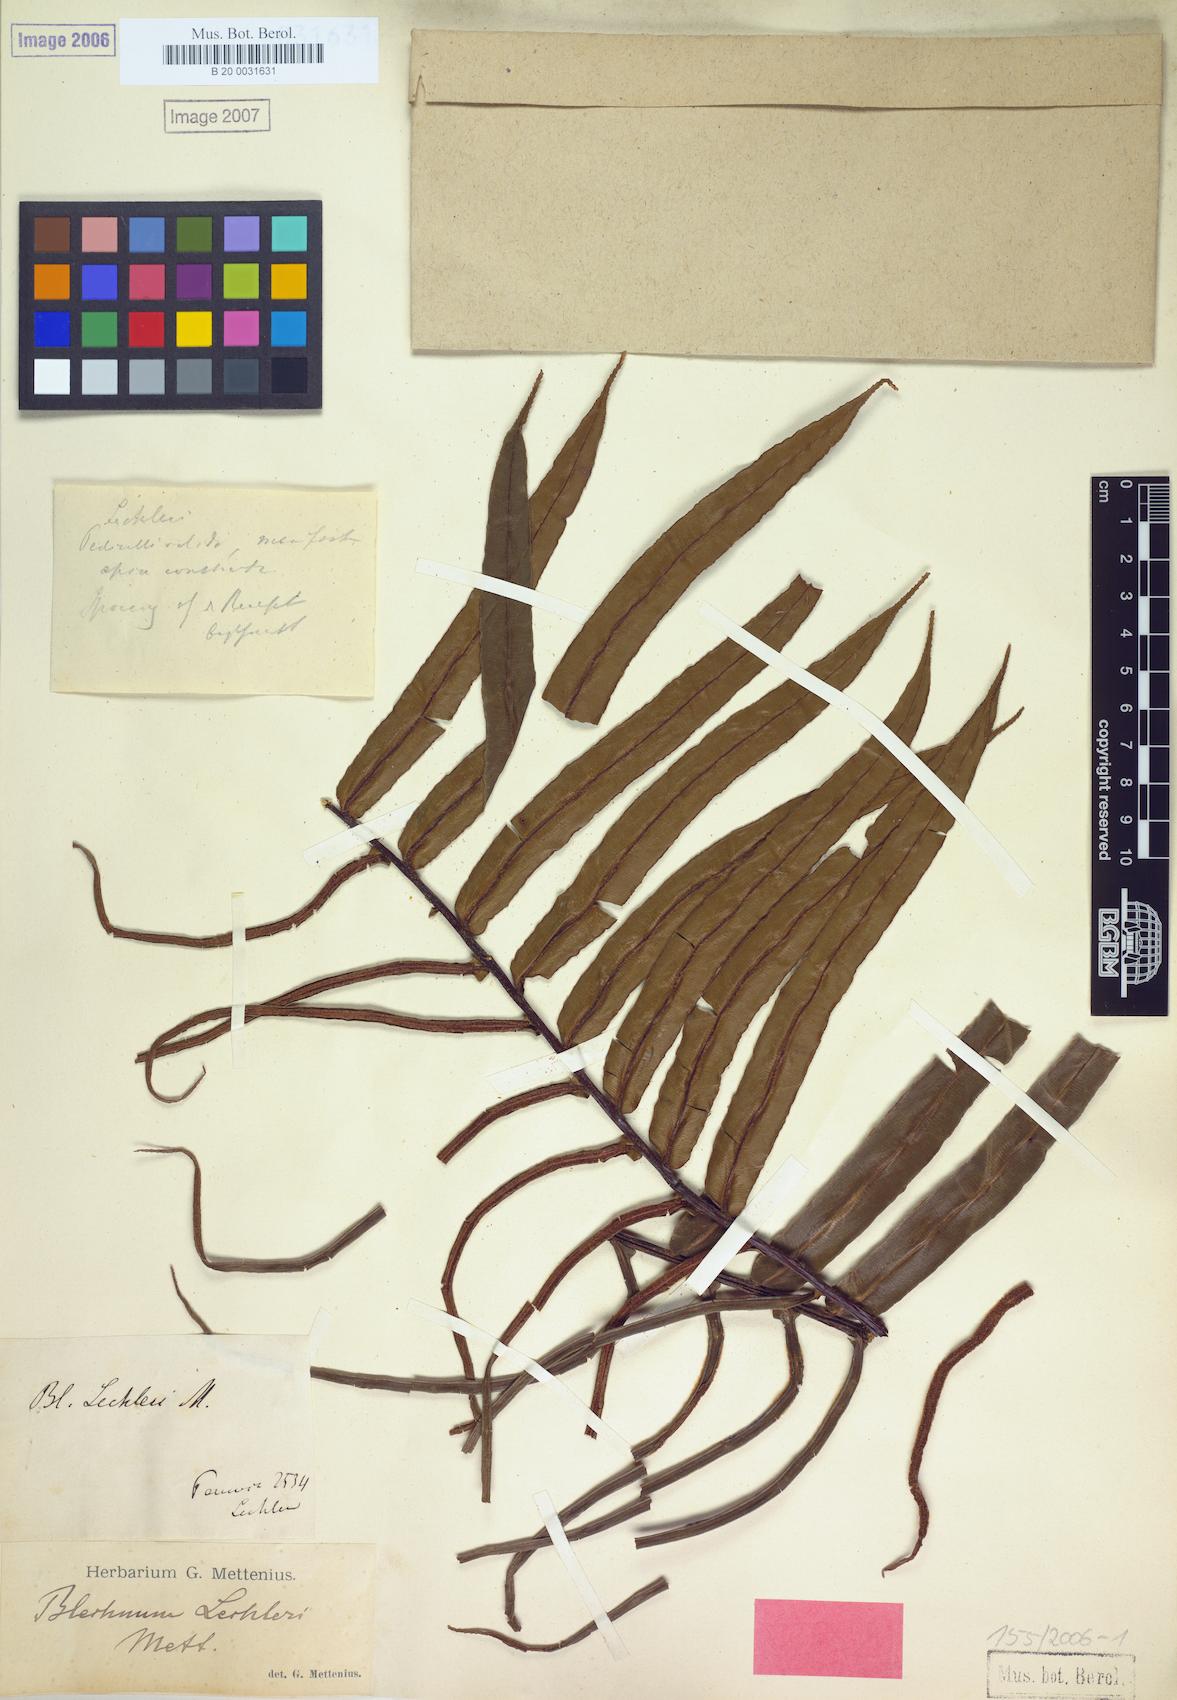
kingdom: Plantae
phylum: Tracheophyta
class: Polypodiopsida
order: Polypodiales
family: Blechnaceae
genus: Parablechnum
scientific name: Parablechnum lechleri
